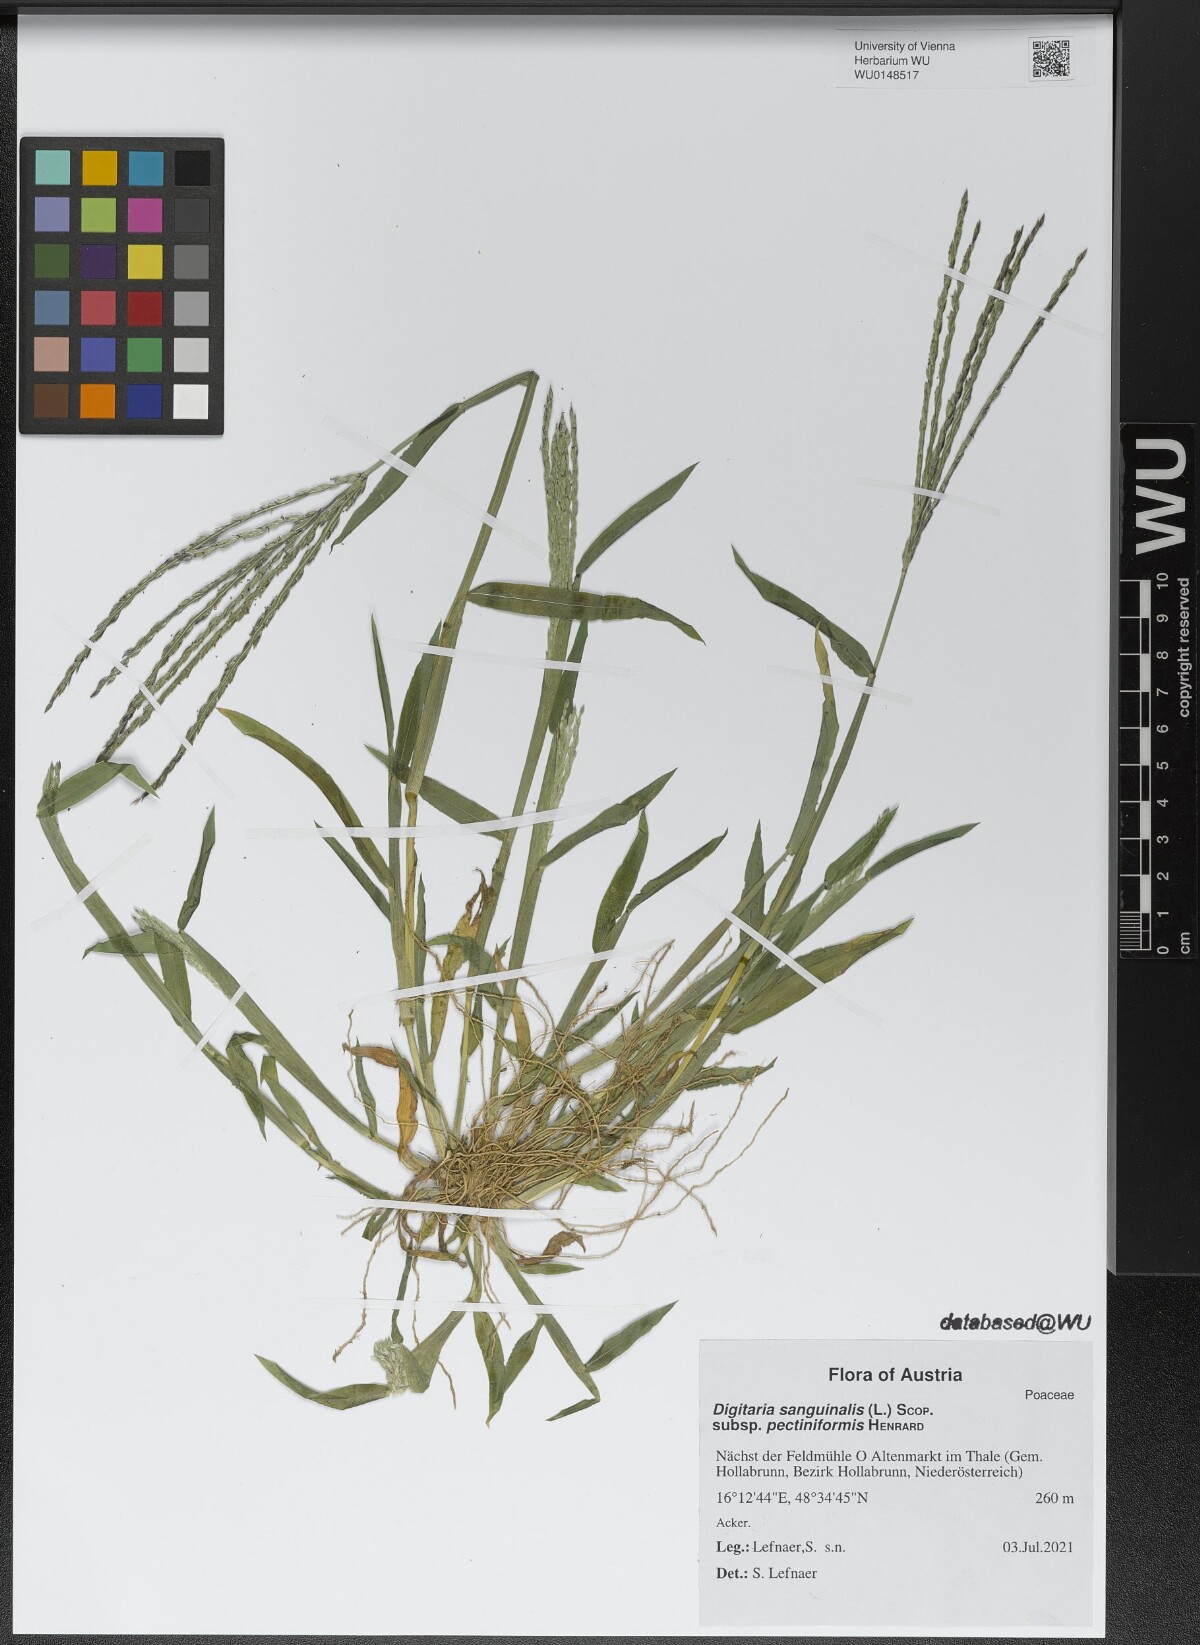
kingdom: Plantae
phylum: Tracheophyta
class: Liliopsida
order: Poales
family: Poaceae
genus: Digitaria
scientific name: Digitaria sanguinalis
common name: Hairy crabgrass
